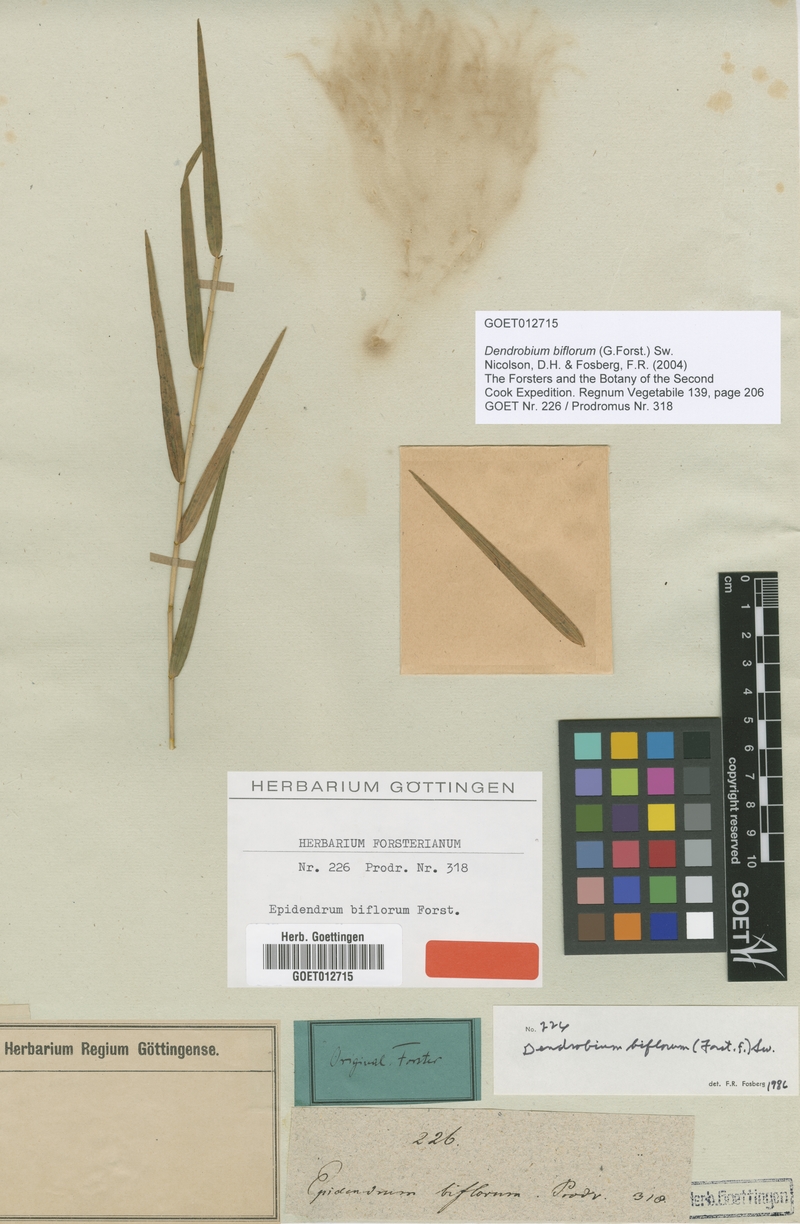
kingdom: Plantae
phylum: Tracheophyta
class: Liliopsida
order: Asparagales
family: Orchidaceae
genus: Dendrobium
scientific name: Dendrobium biflorum
